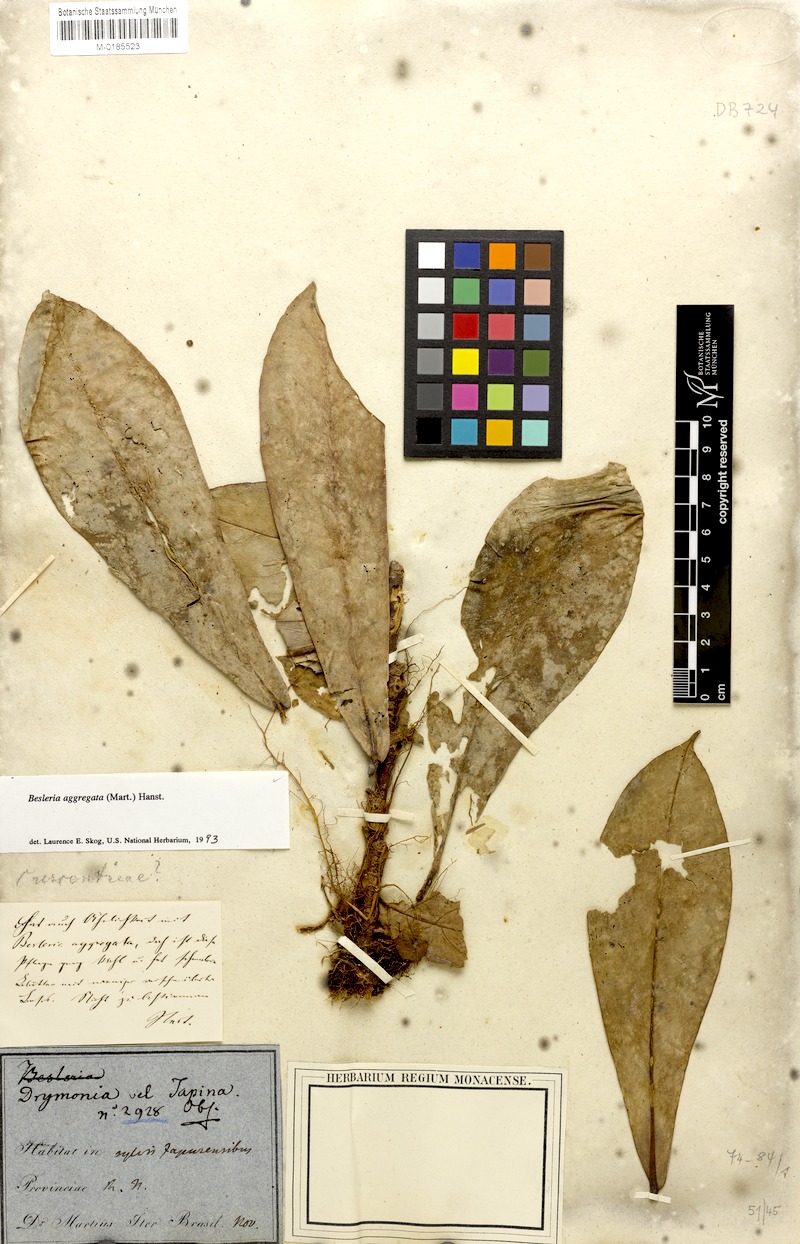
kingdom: Plantae
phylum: Tracheophyta
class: Magnoliopsida
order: Lamiales
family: Gesneriaceae
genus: Besleria
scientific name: Besleria aggregata
